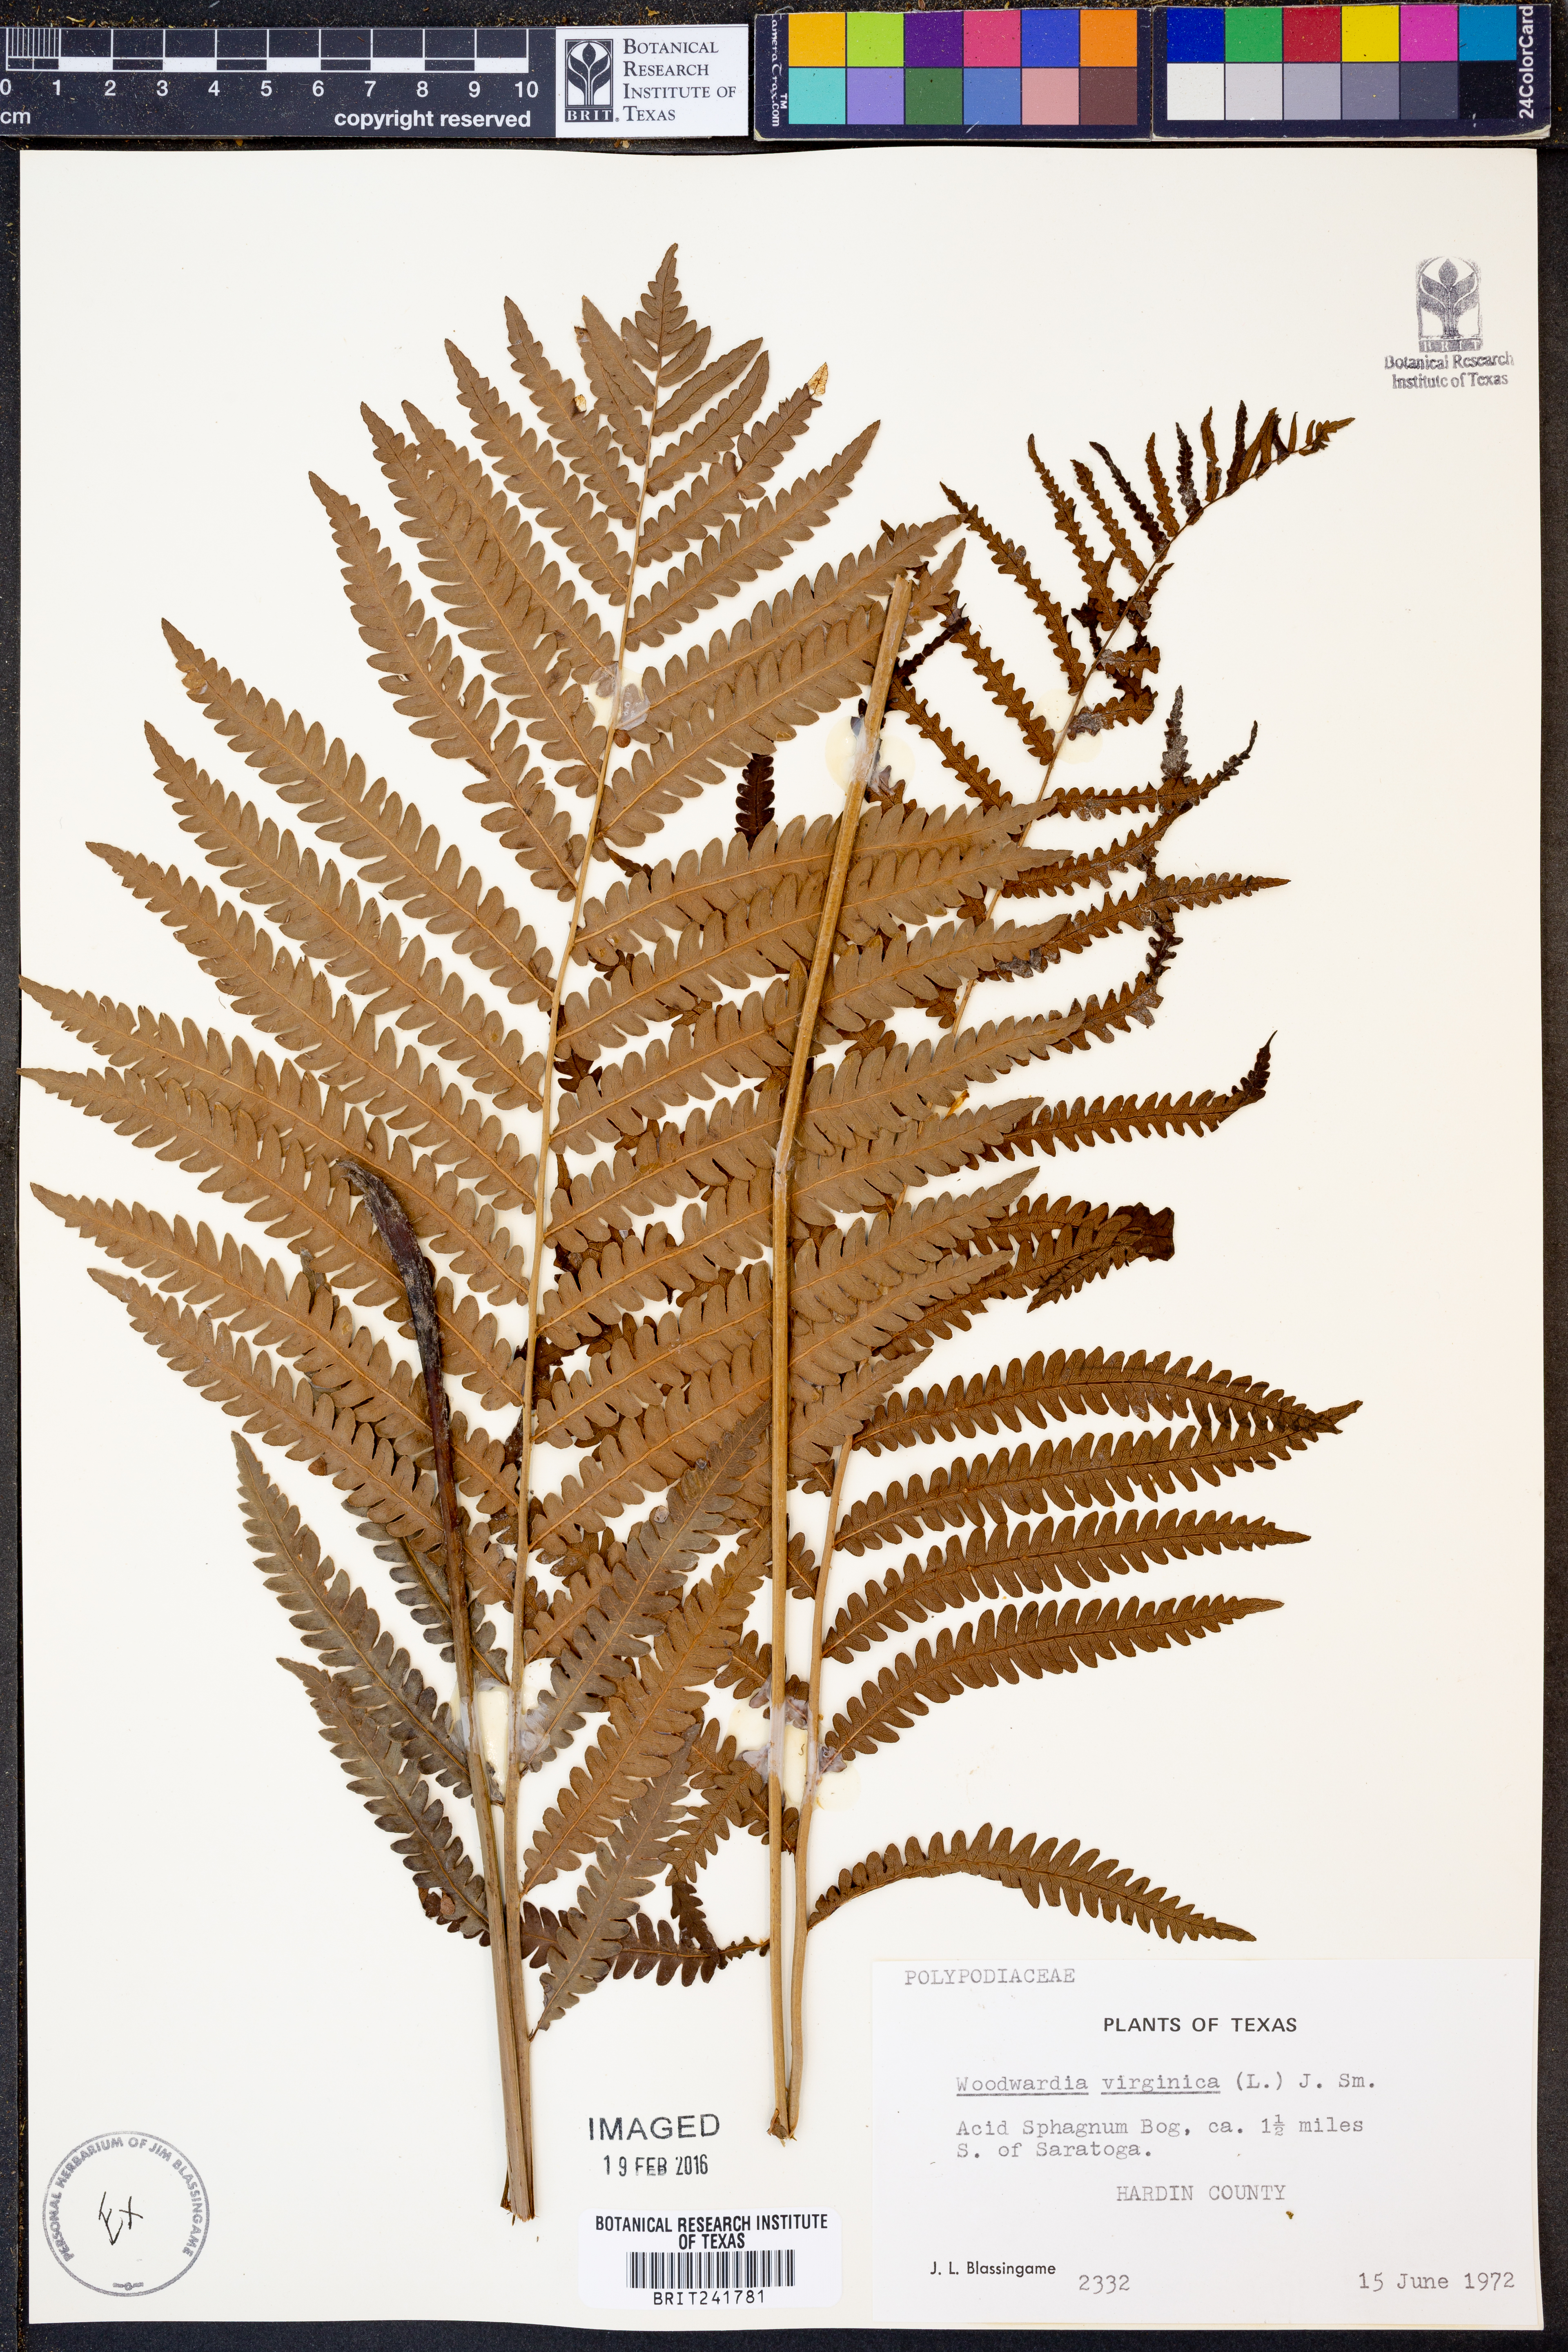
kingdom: Plantae
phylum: Tracheophyta
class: Polypodiopsida
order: Polypodiales
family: Blechnaceae
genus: Anchistea
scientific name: Anchistea virginica
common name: Virginia chain fern
